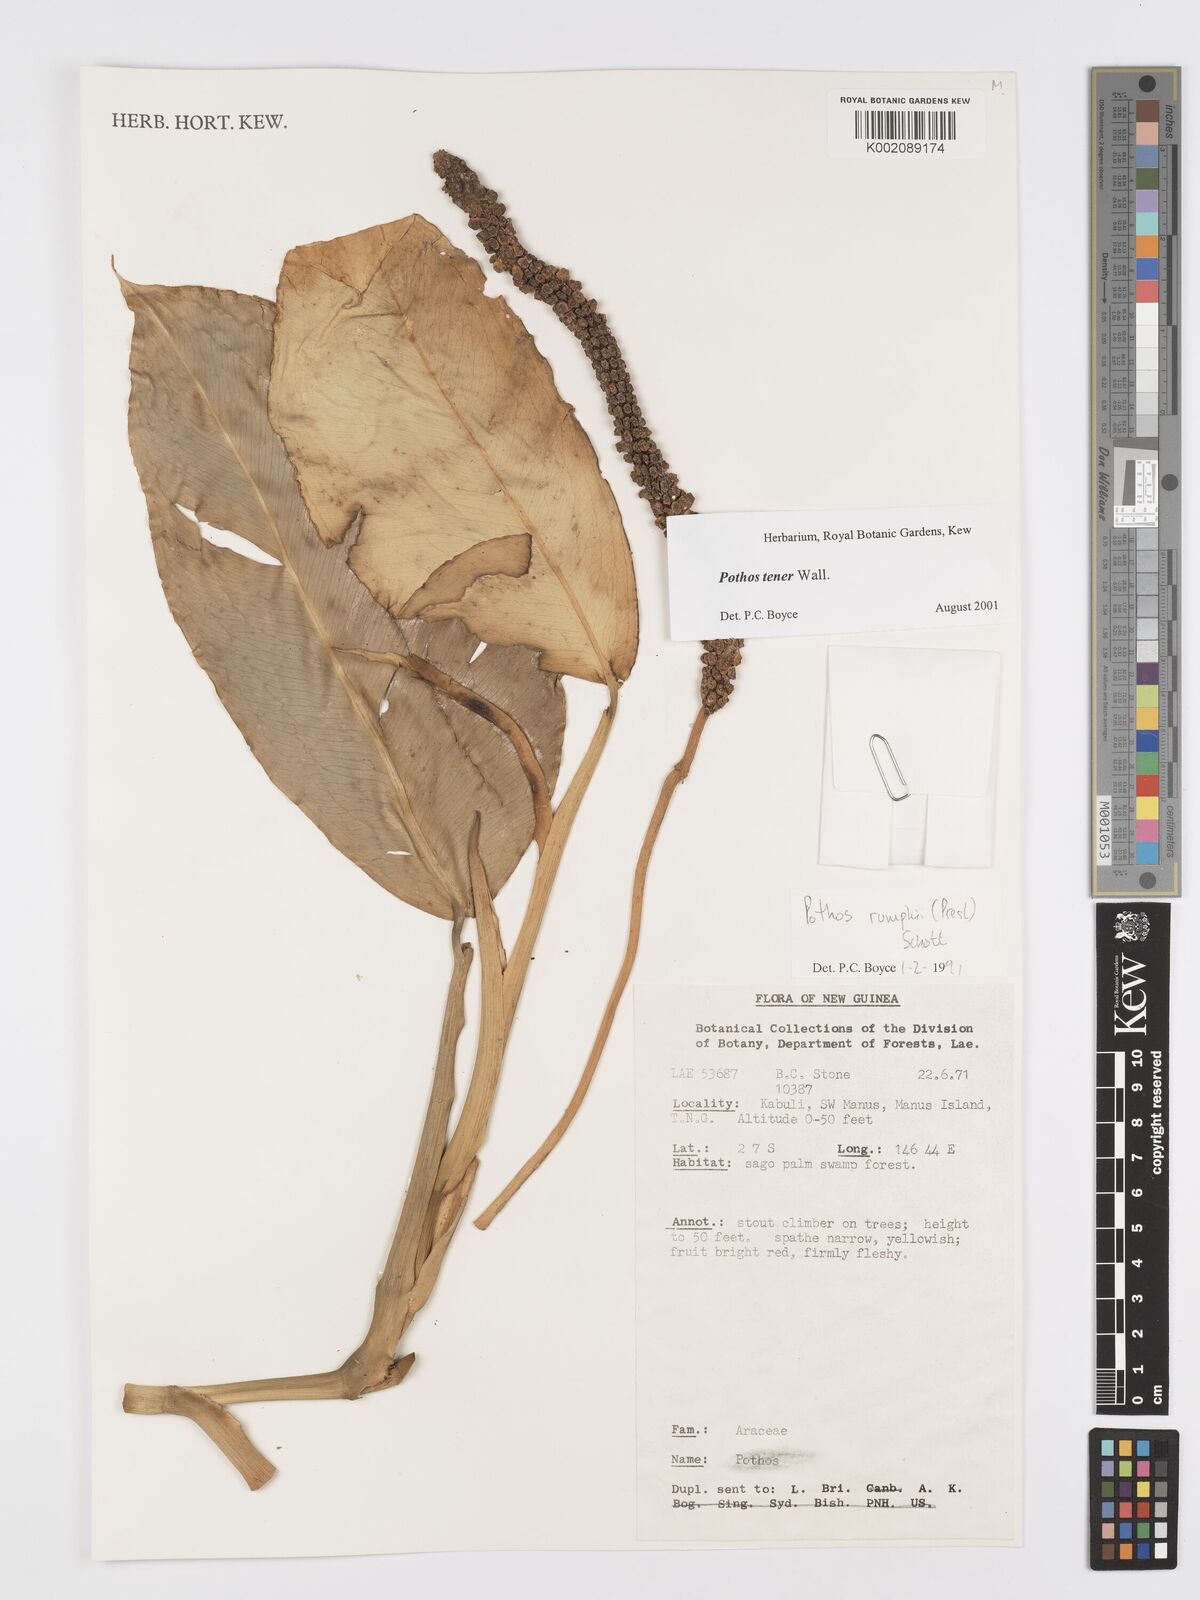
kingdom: Plantae
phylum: Tracheophyta
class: Liliopsida
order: Alismatales
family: Araceae
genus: Pothos
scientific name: Pothos tener
